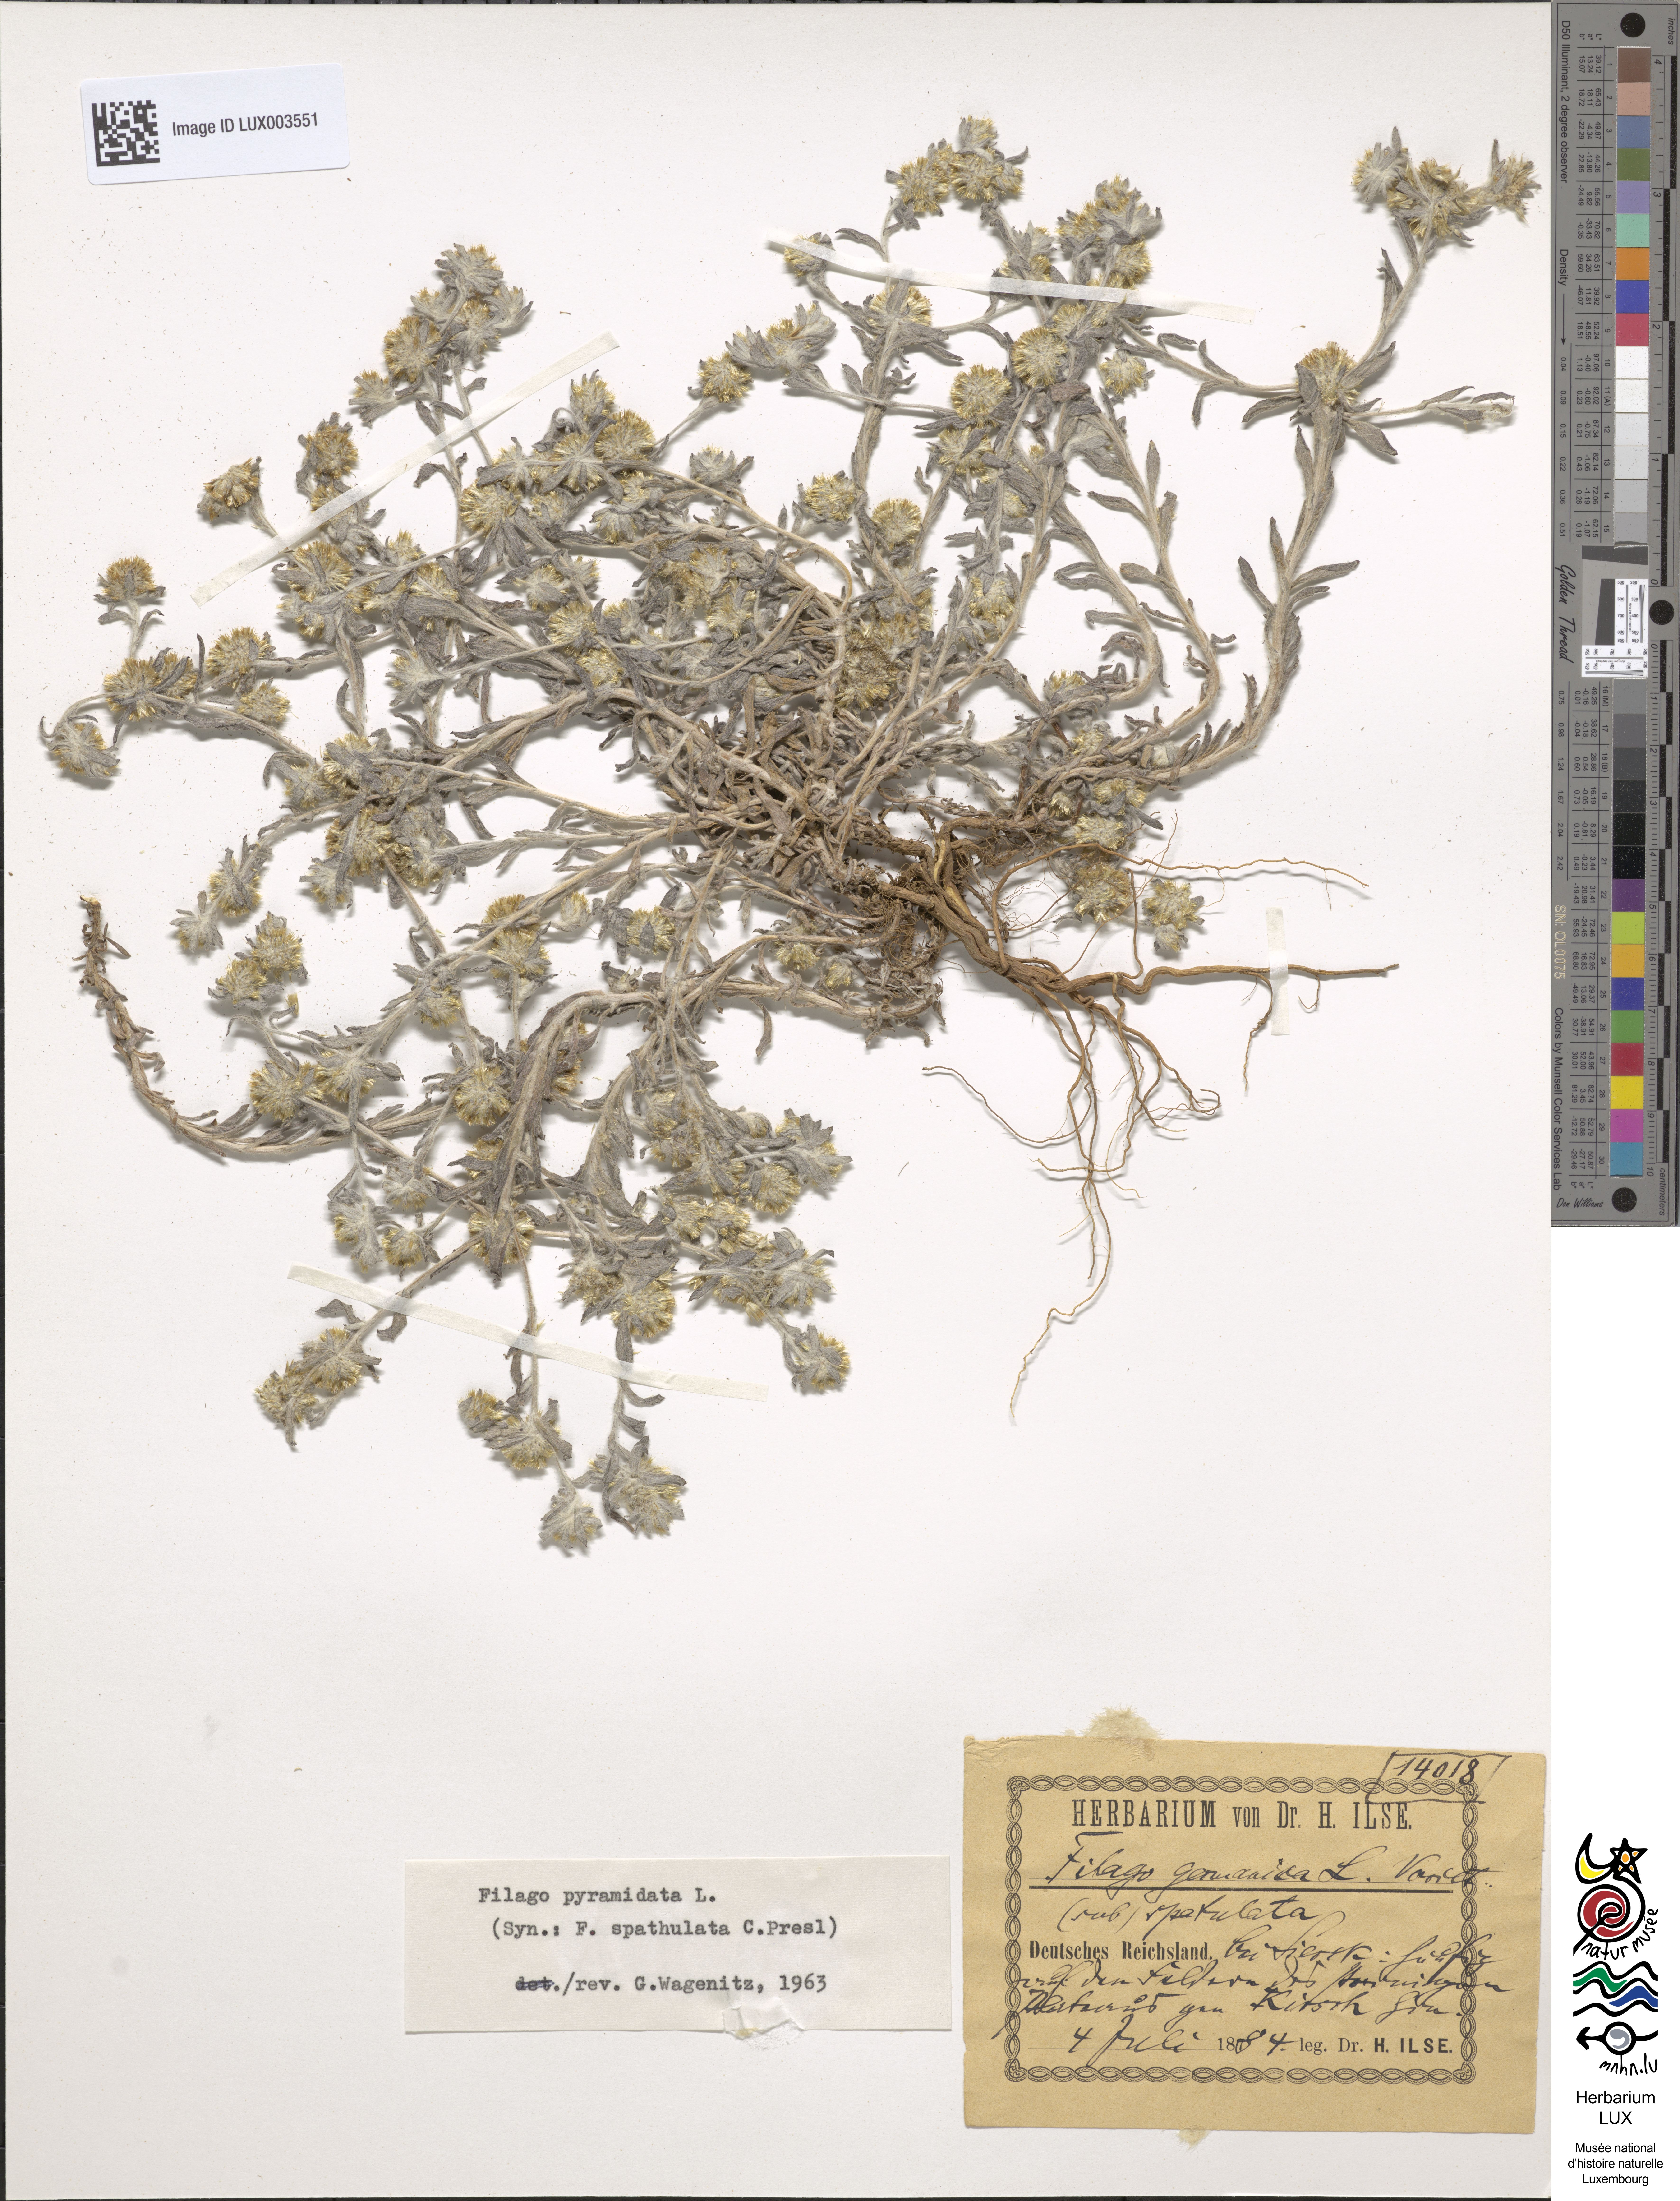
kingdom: Plantae
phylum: Tracheophyta
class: Magnoliopsida
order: Asterales
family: Asteraceae
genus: Filago
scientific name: Filago pyramidata
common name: Broad-leaved cudweed
